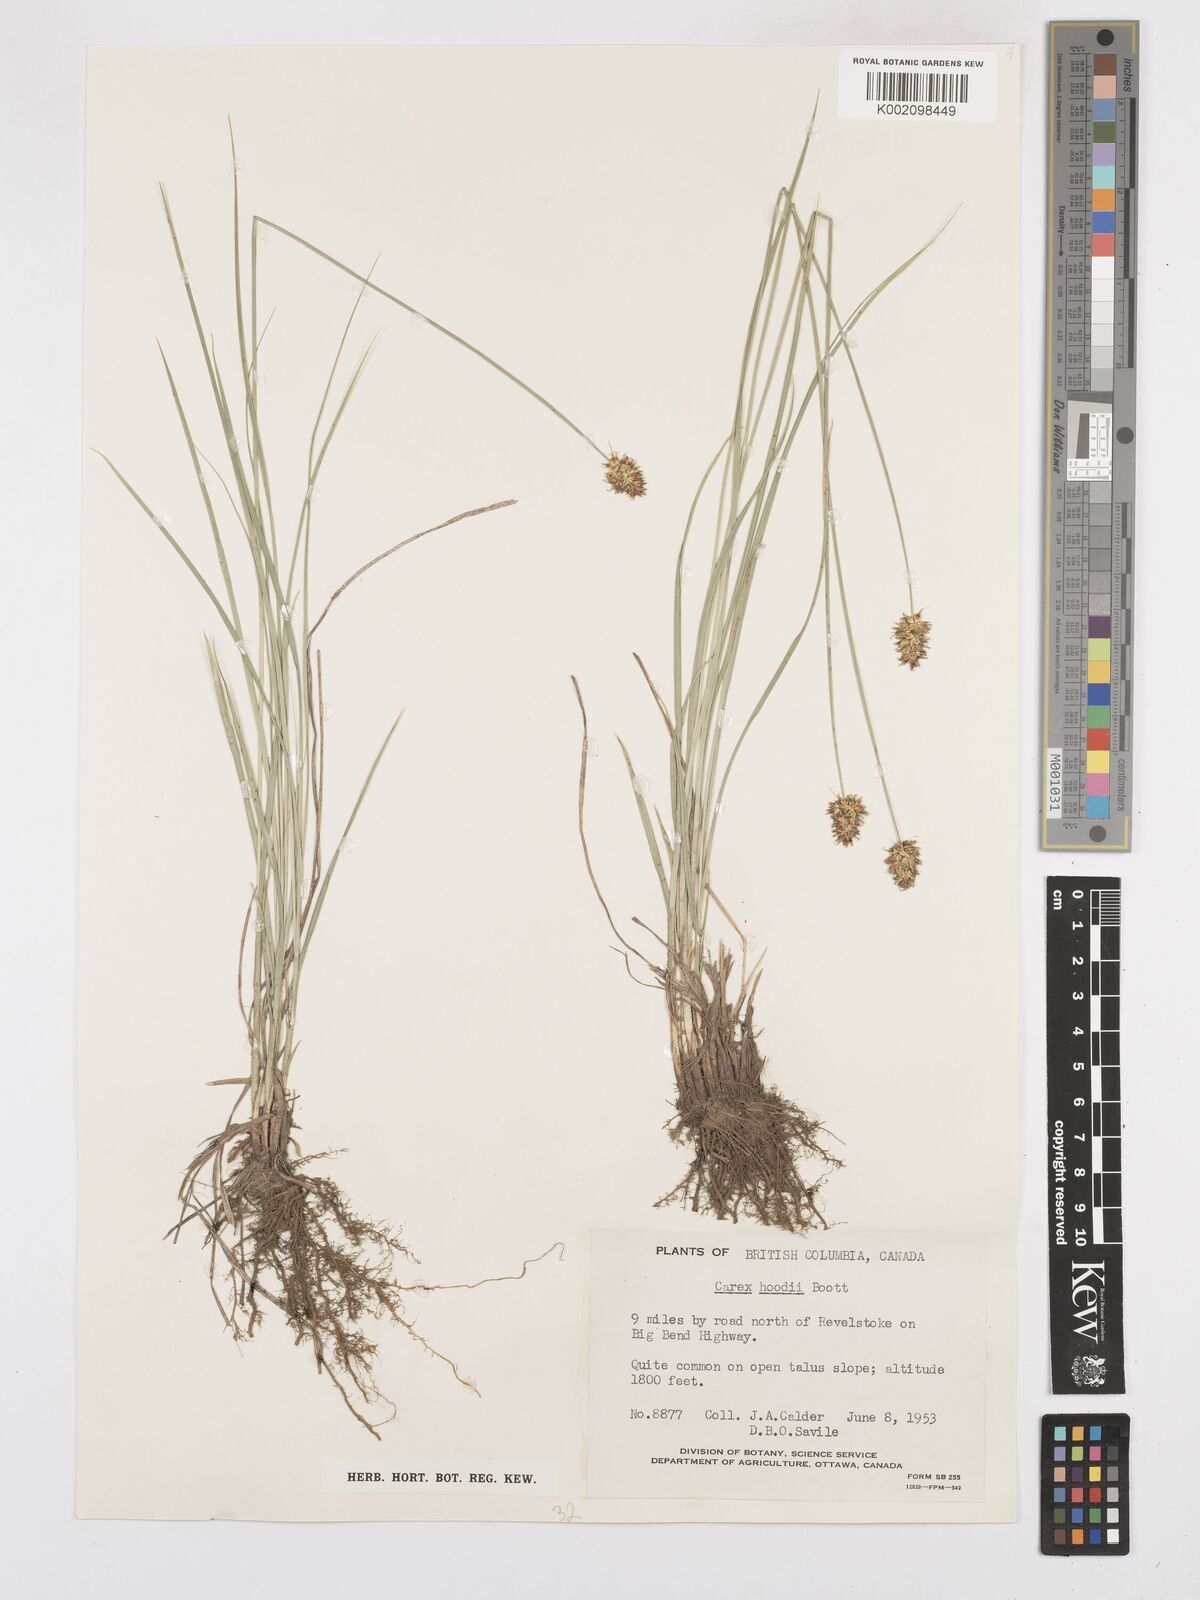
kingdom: Plantae
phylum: Tracheophyta
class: Liliopsida
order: Poales
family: Cyperaceae
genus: Carex
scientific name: Carex hoodii
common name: Hood's sedge
